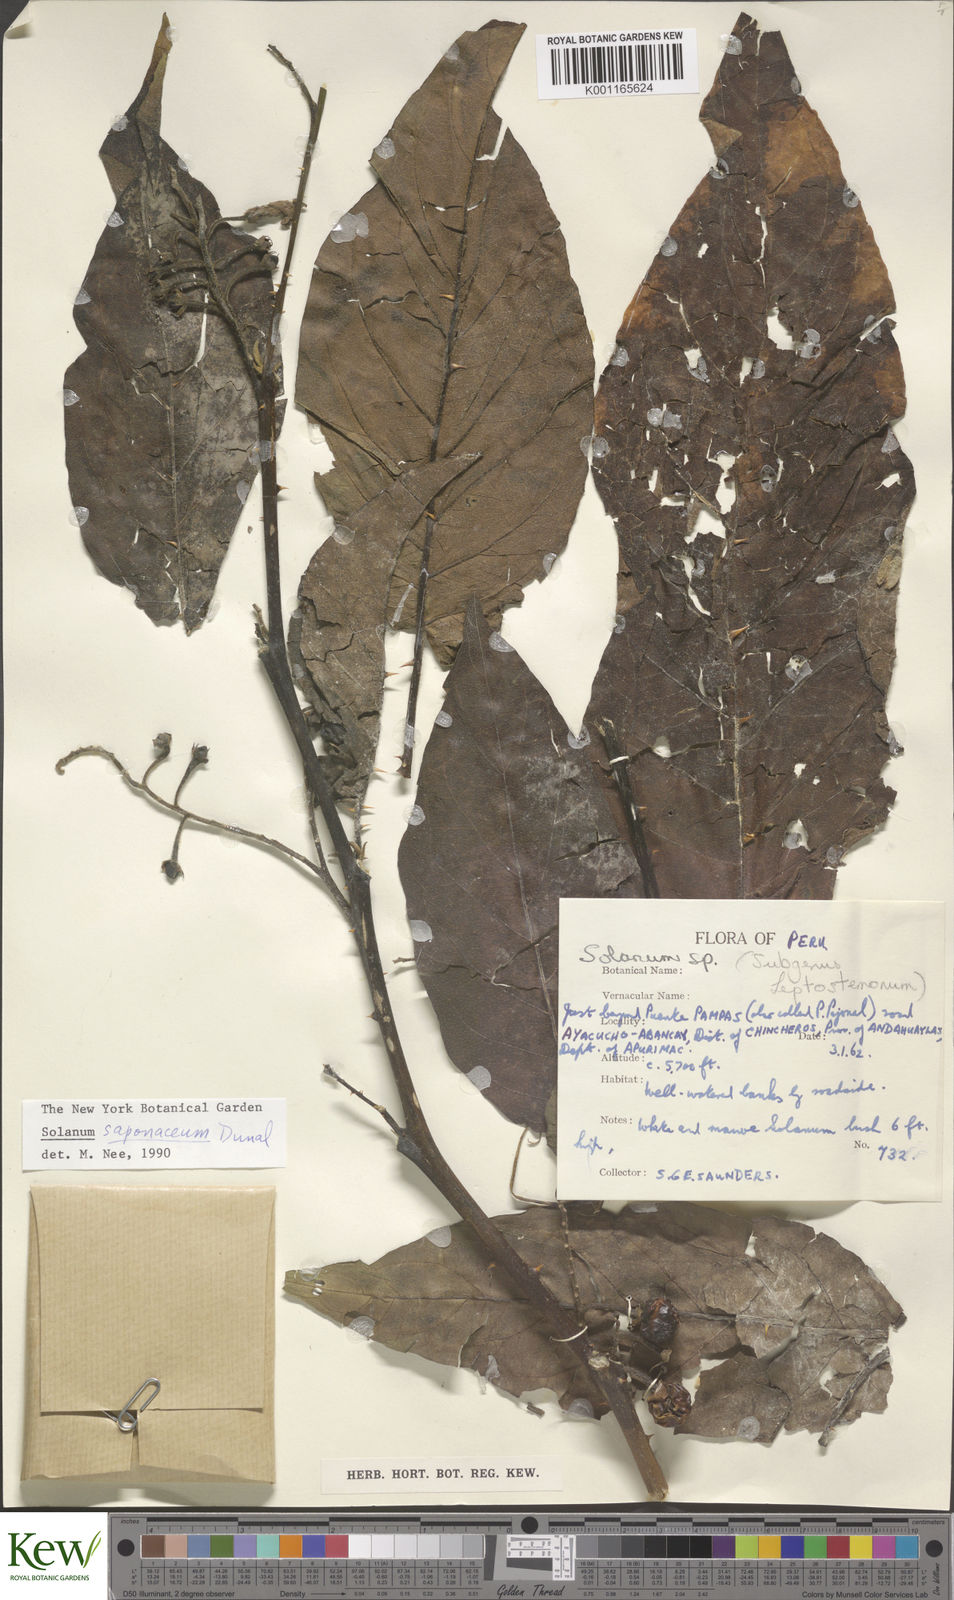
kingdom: Plantae
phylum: Tracheophyta
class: Magnoliopsida
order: Solanales
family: Solanaceae
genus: Solanum
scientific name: Solanum saponaceum
